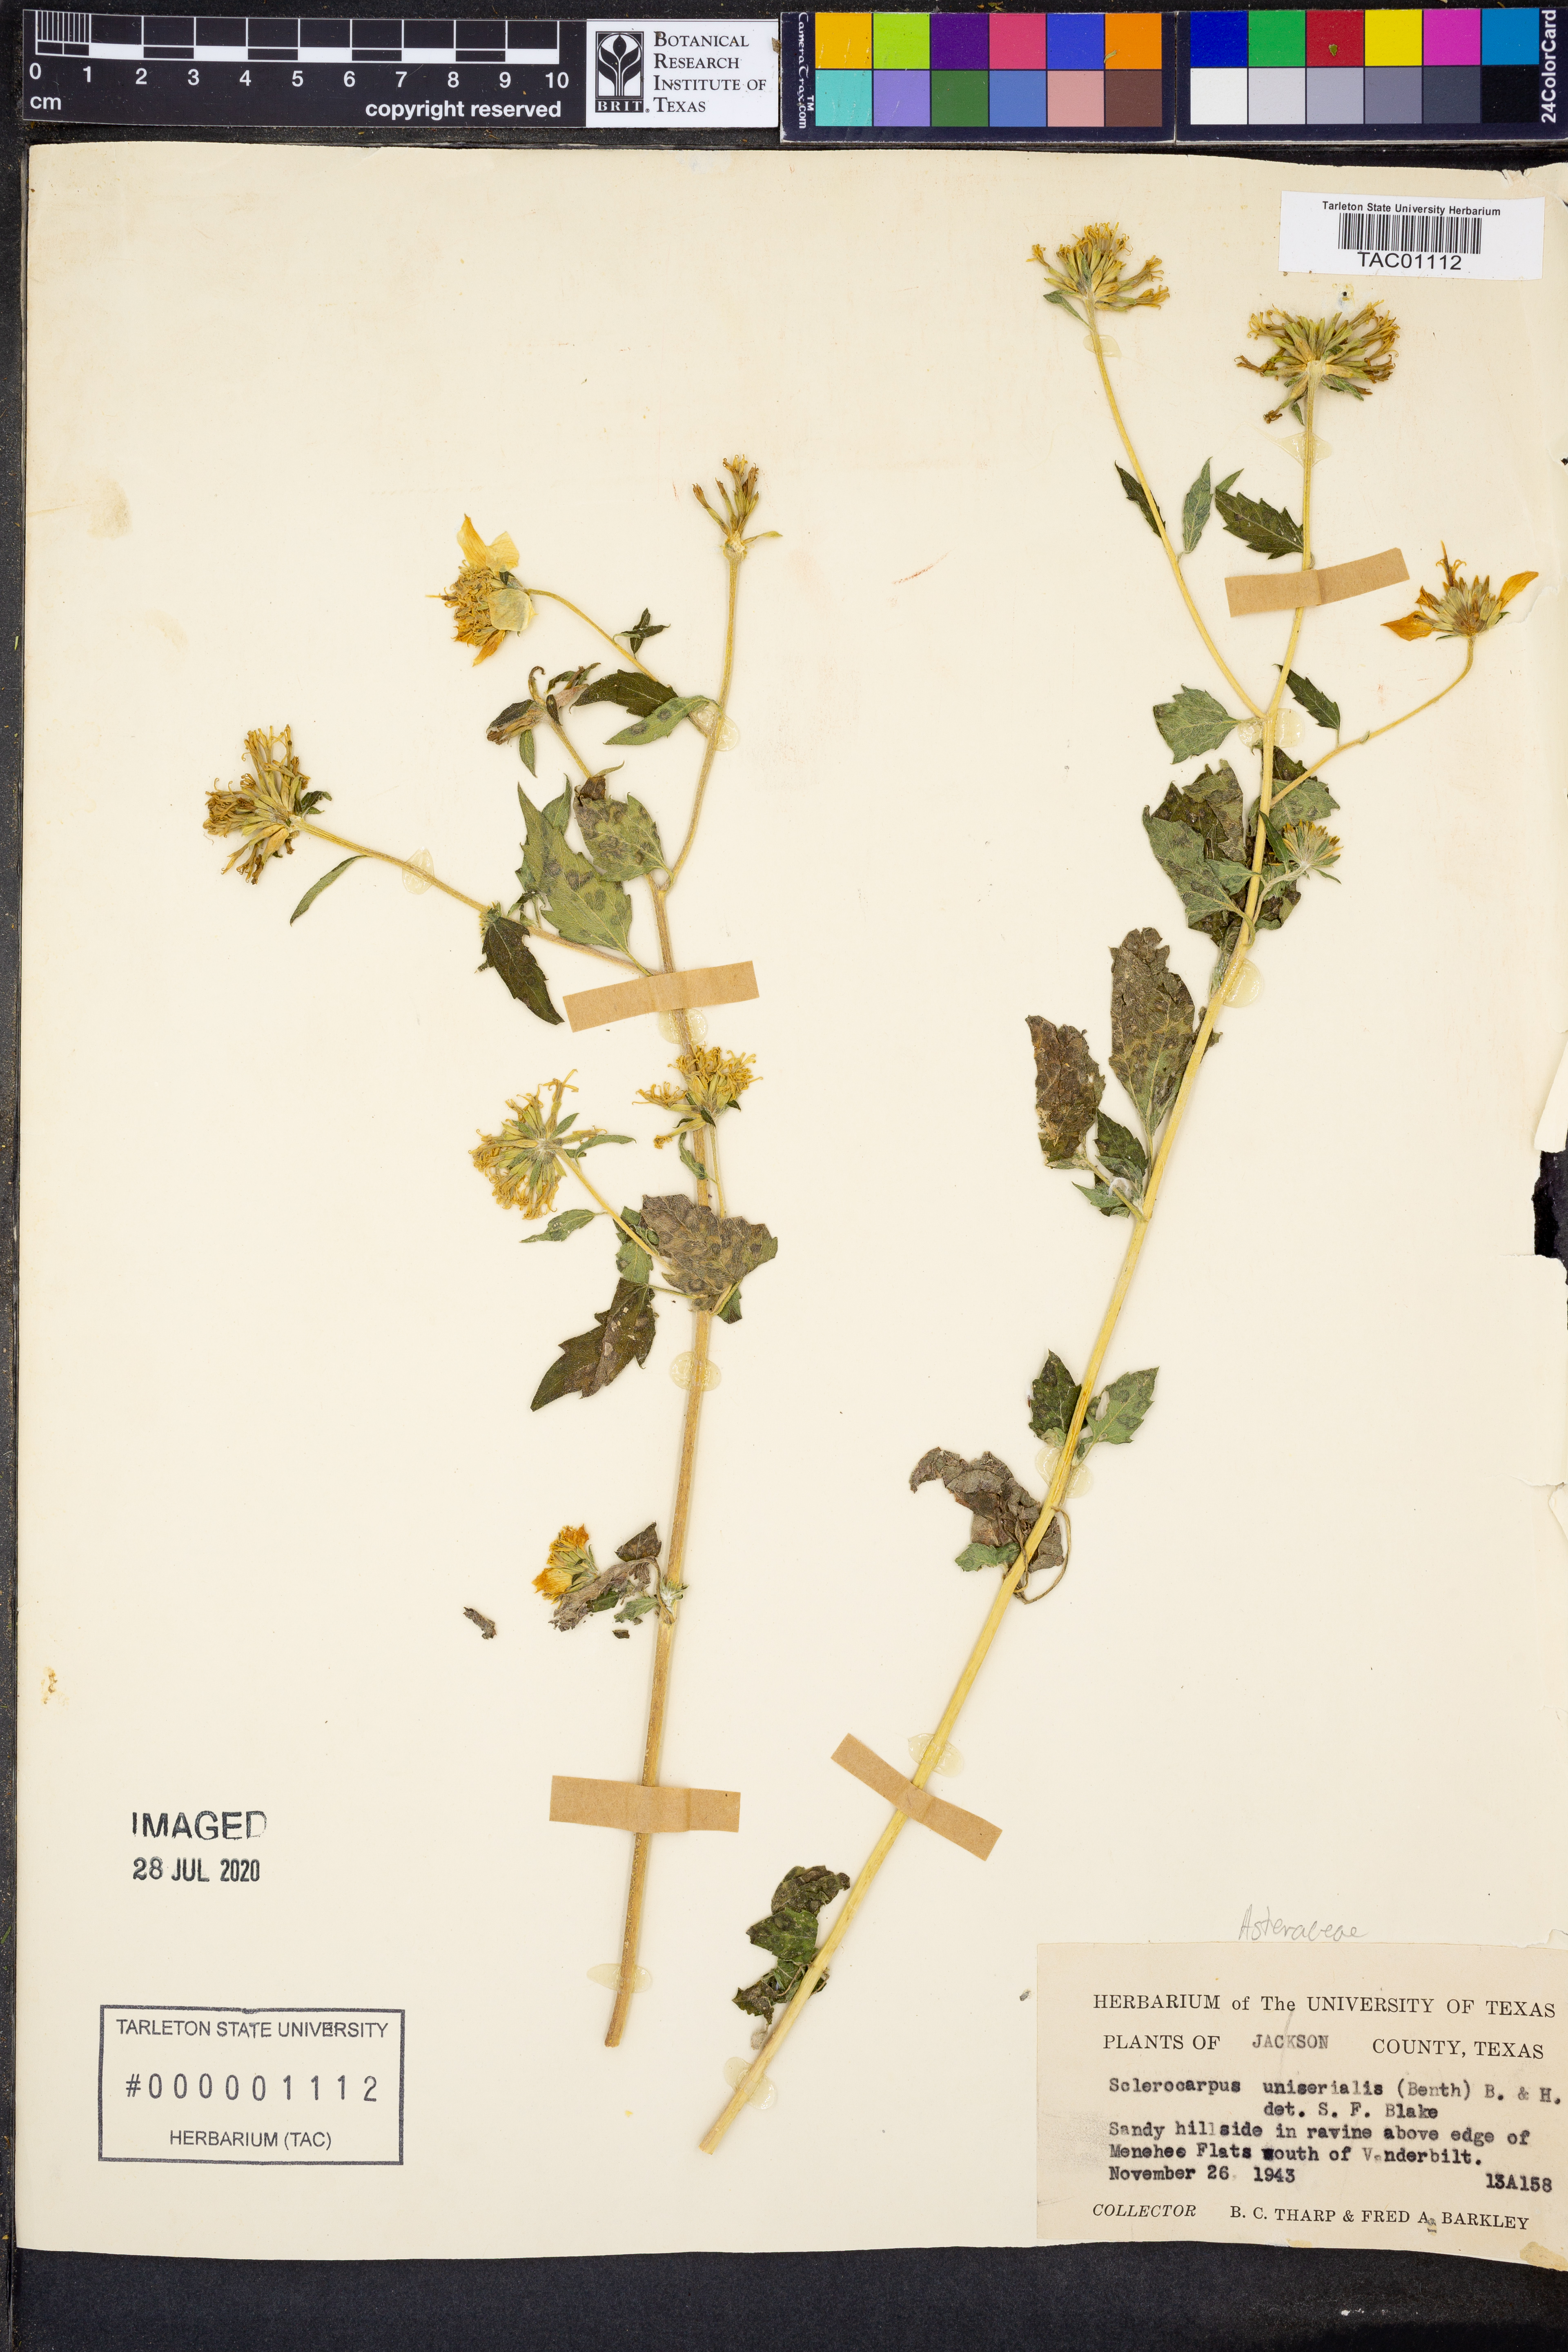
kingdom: Plantae
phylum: Tracheophyta
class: Magnoliopsida
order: Asterales
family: Asteraceae
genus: Sclerocarpus
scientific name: Sclerocarpus uniserialis
